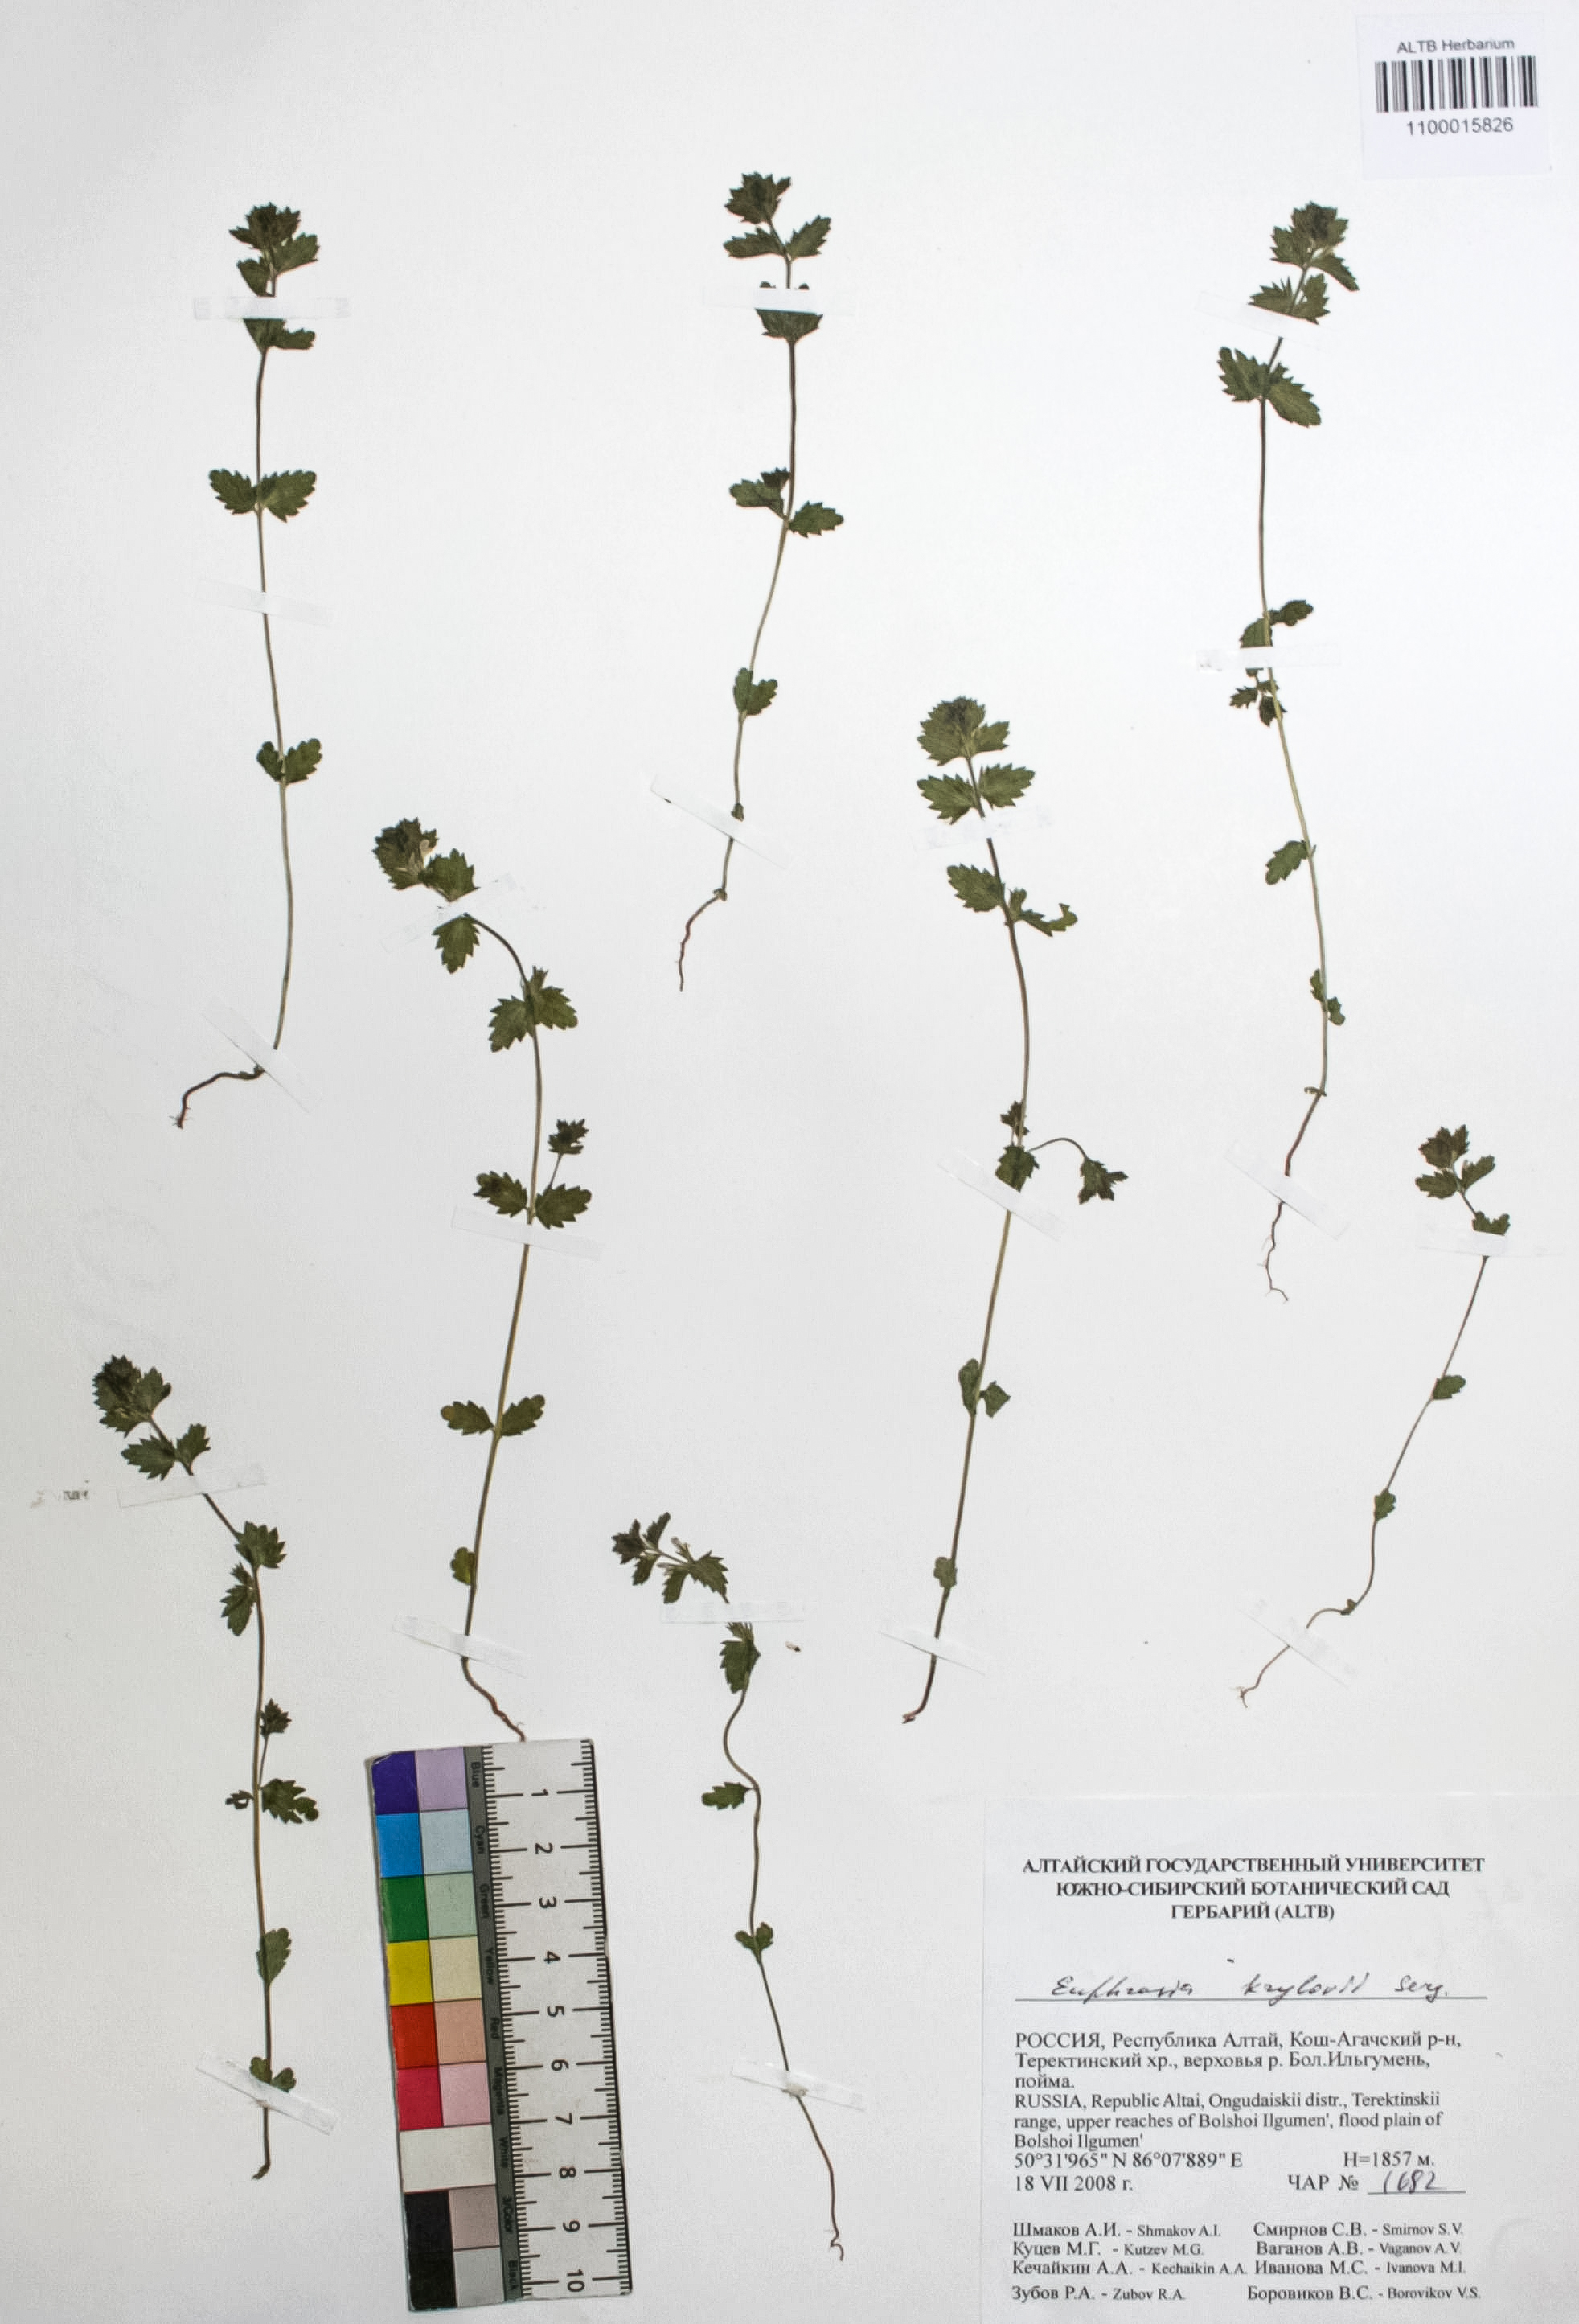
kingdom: Plantae
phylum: Tracheophyta
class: Magnoliopsida
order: Lamiales
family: Orobanchaceae
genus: Euphrasia
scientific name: Euphrasia krylovii
